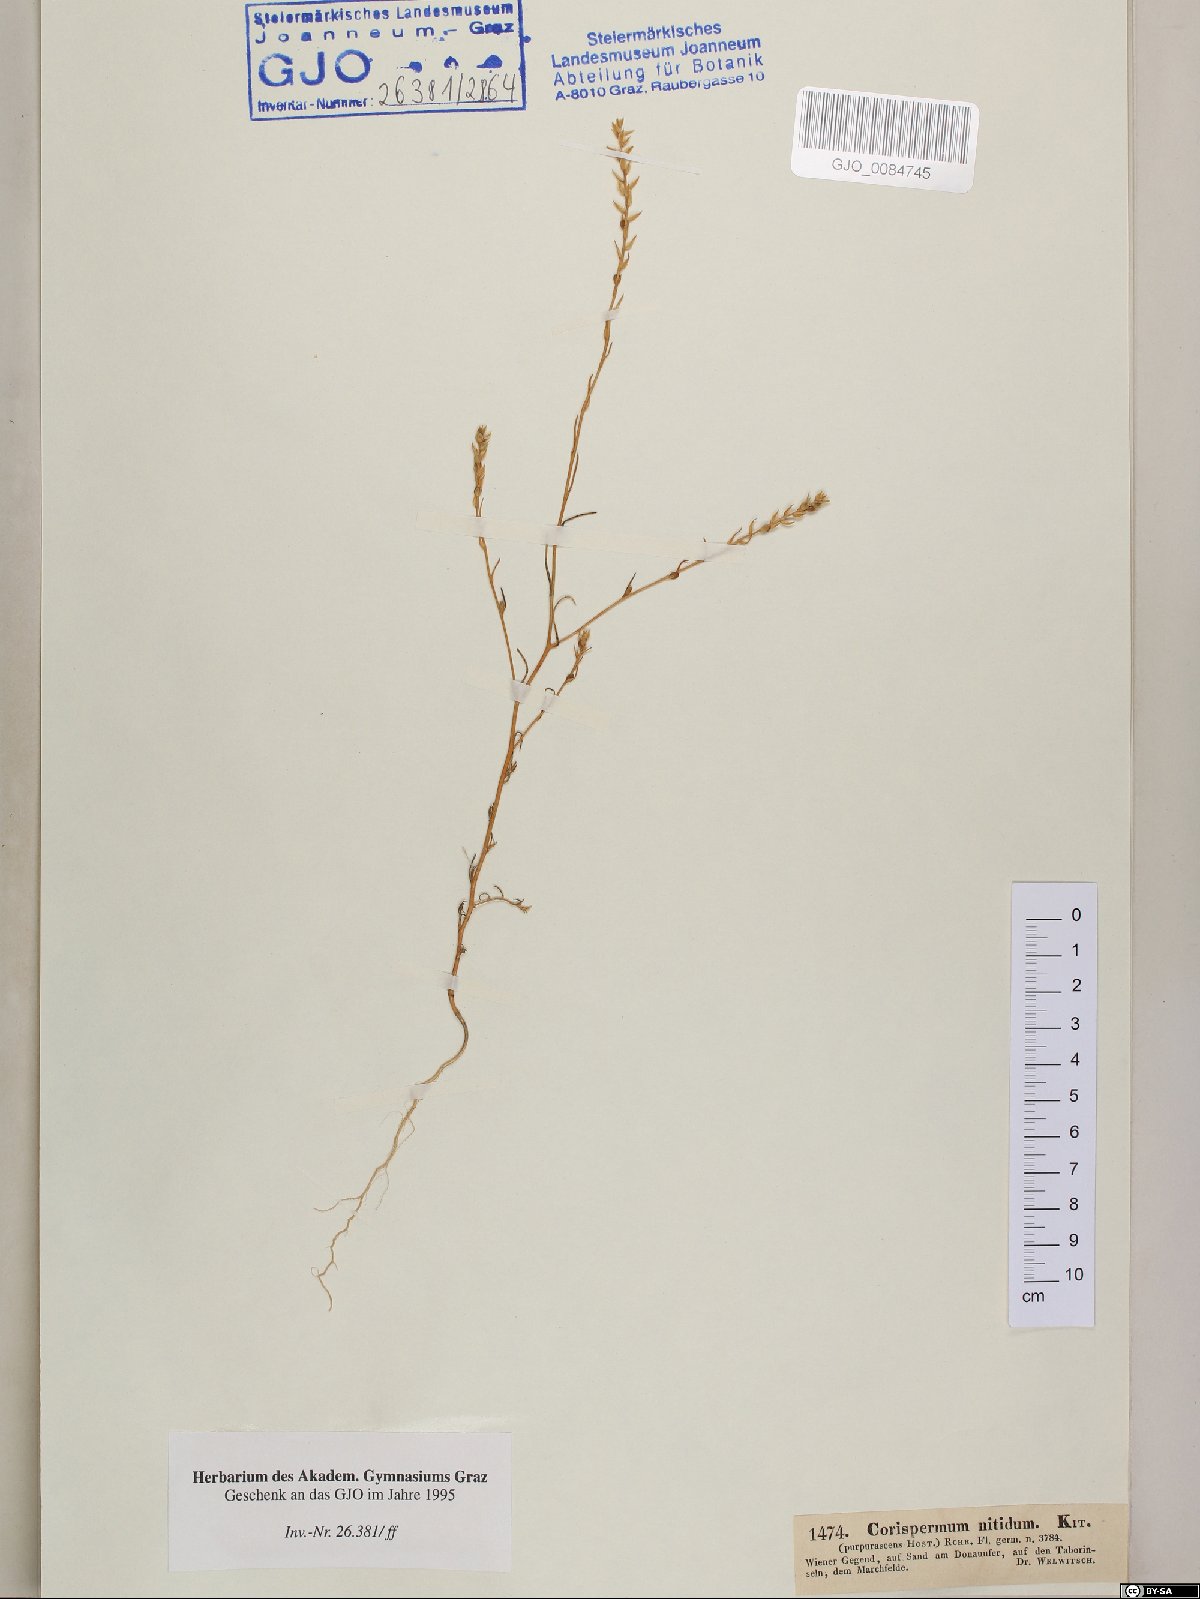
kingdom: Plantae
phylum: Tracheophyta
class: Magnoliopsida
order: Caryophyllales
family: Amaranthaceae
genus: Corispermum
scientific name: Corispermum nitidum
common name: Bugseed
